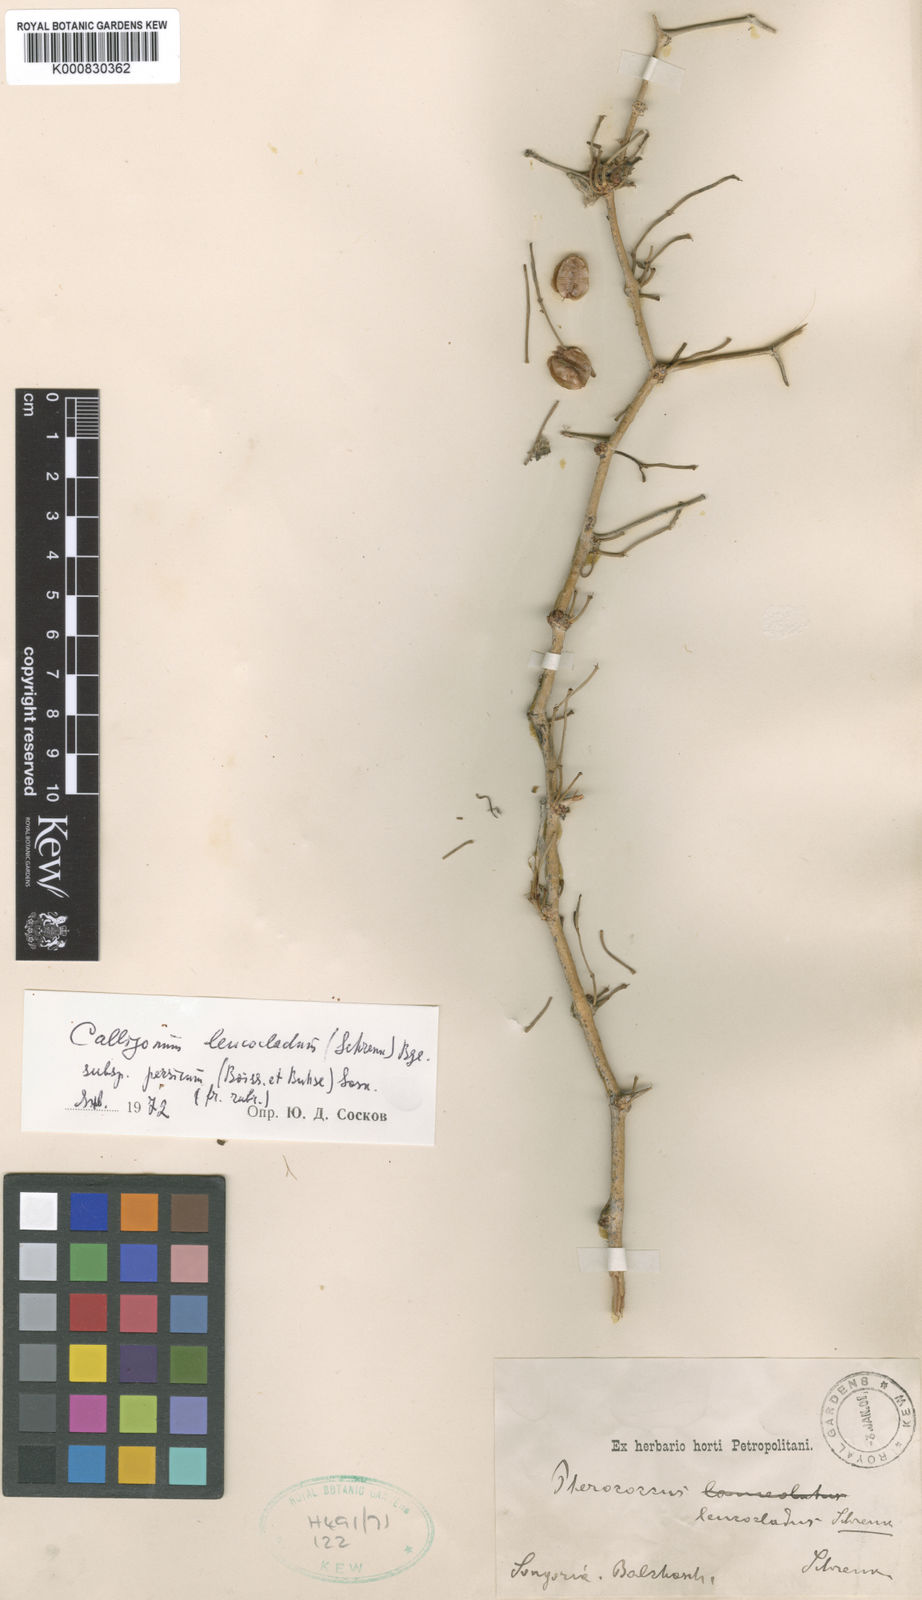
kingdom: Plantae
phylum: Tracheophyta
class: Magnoliopsida
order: Caryophyllales
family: Polygonaceae
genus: Calligonum
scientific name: Calligonum leucocladum
